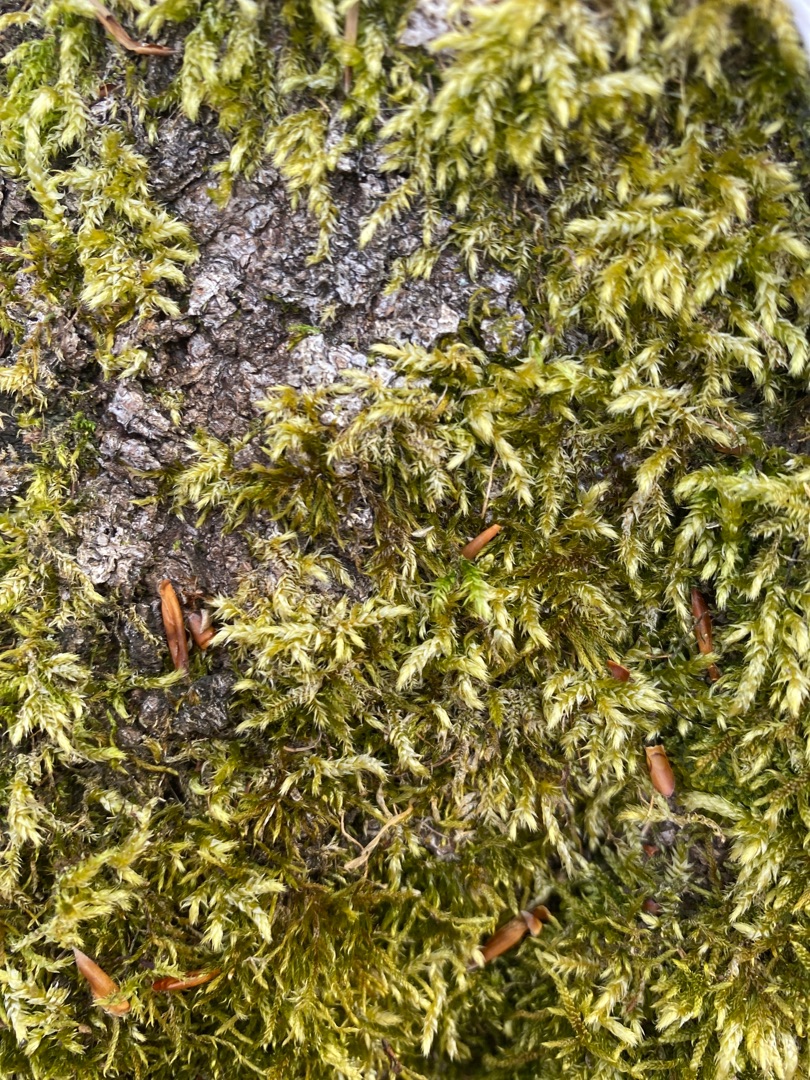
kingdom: Plantae
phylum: Bryophyta
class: Bryopsida
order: Hypnales
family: Brachytheciaceae
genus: Brachythecium
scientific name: Brachythecium rutabulum
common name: Almindelig kortkapsel
